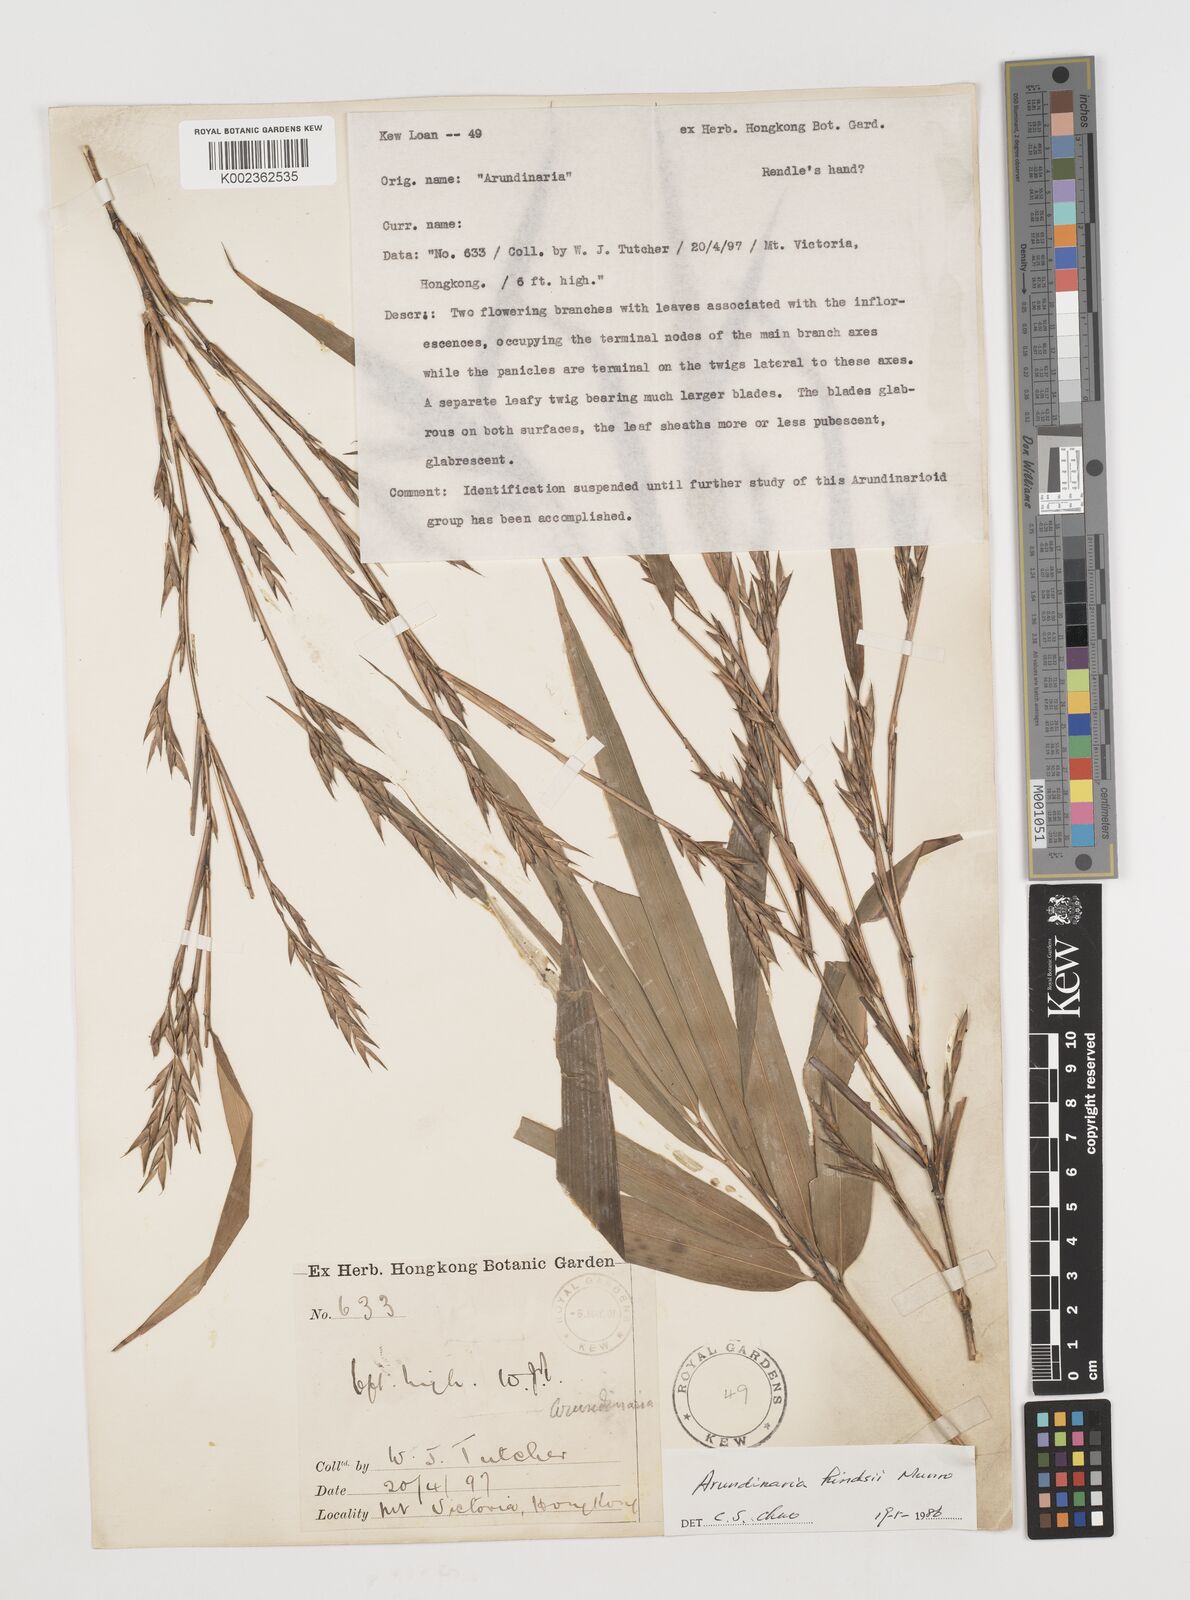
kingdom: Plantae
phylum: Tracheophyta
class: Liliopsida
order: Poales
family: Poaceae
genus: Pseudosasa
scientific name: Pseudosasa hindsii
